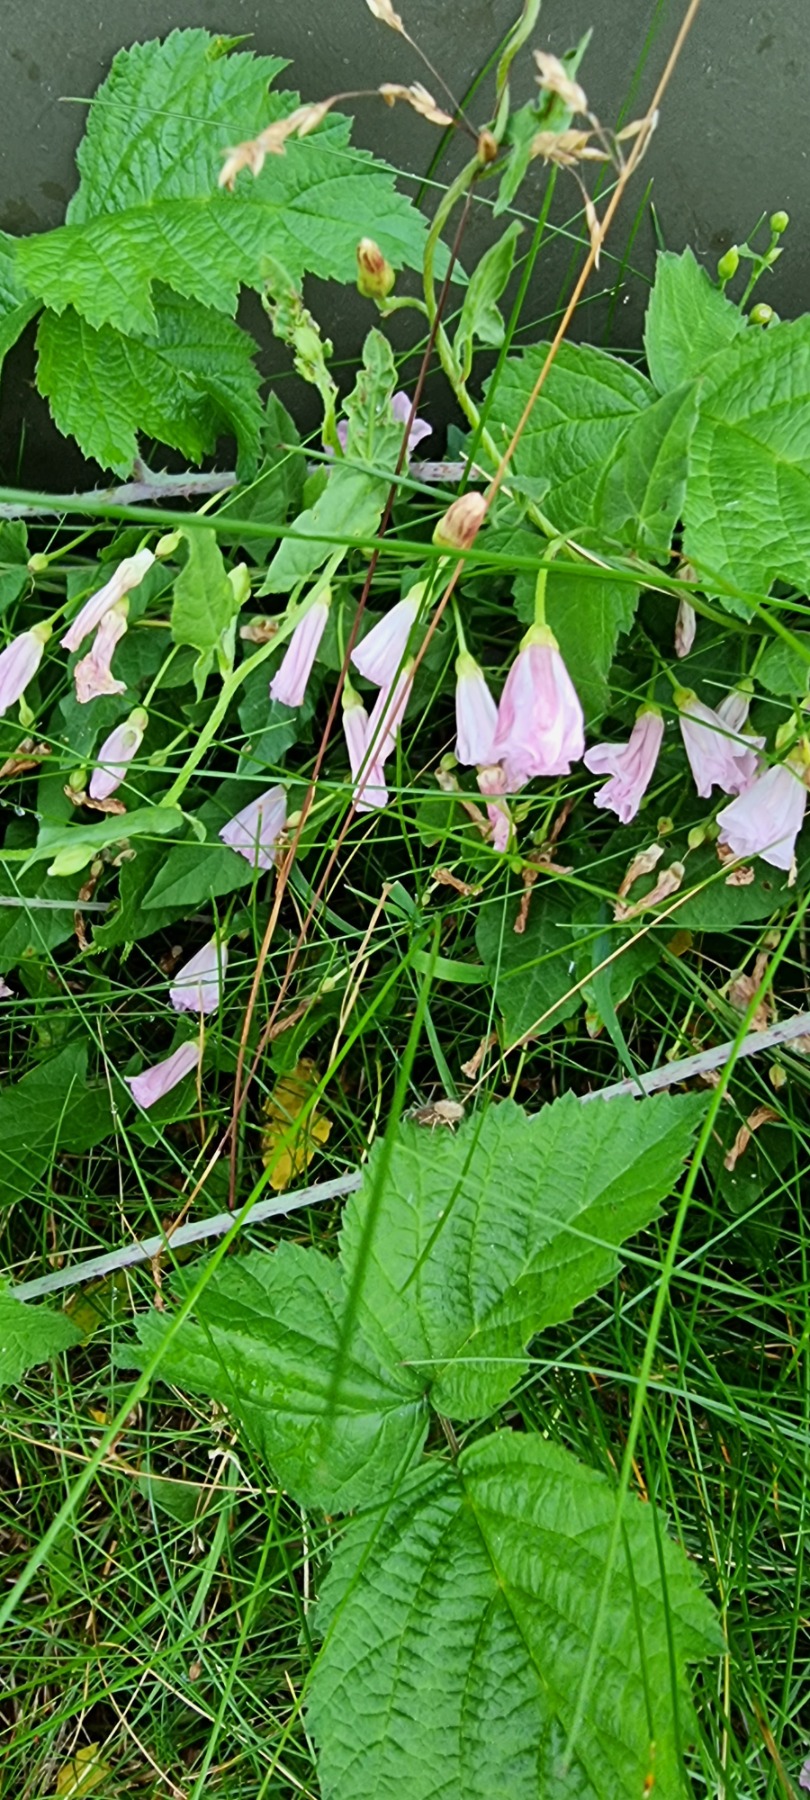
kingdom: Plantae
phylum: Tracheophyta
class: Magnoliopsida
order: Solanales
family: Convolvulaceae
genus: Convolvulus
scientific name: Convolvulus arvensis
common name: Ager-snerle
